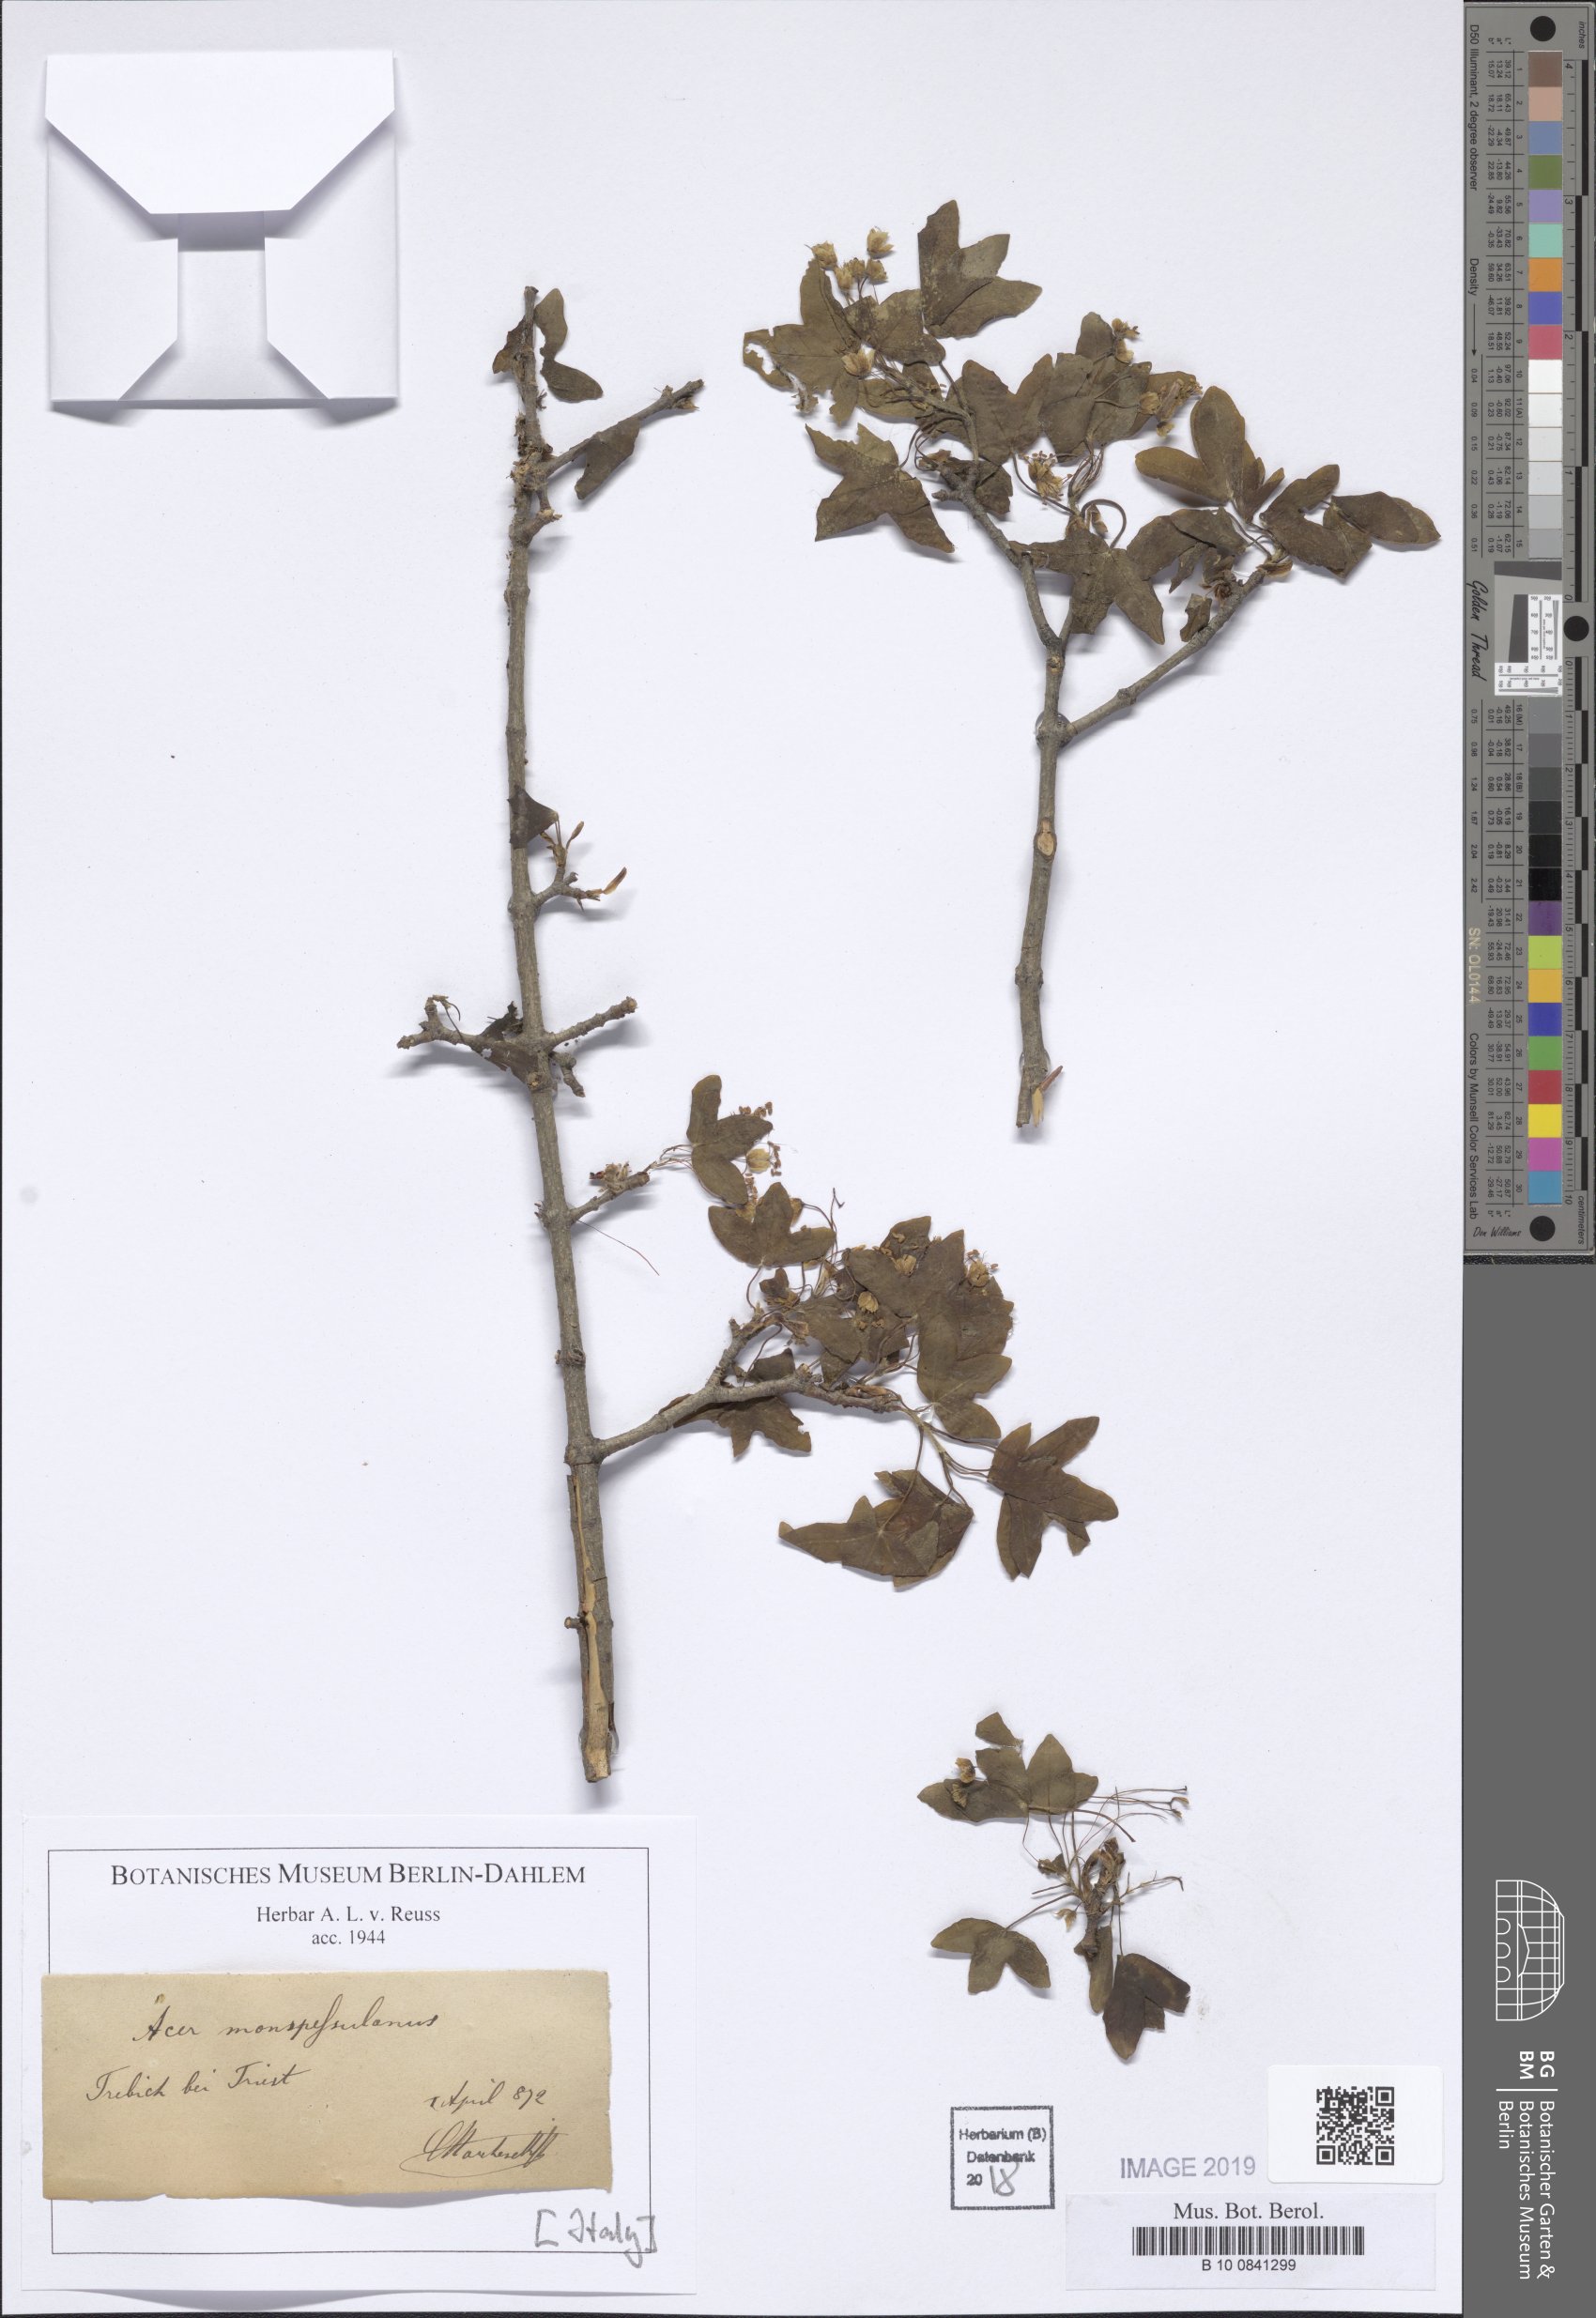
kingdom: Plantae
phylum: Tracheophyta
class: Magnoliopsida
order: Sapindales
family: Sapindaceae
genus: Acer
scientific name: Acer monspessulanum
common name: Montpellier maple
